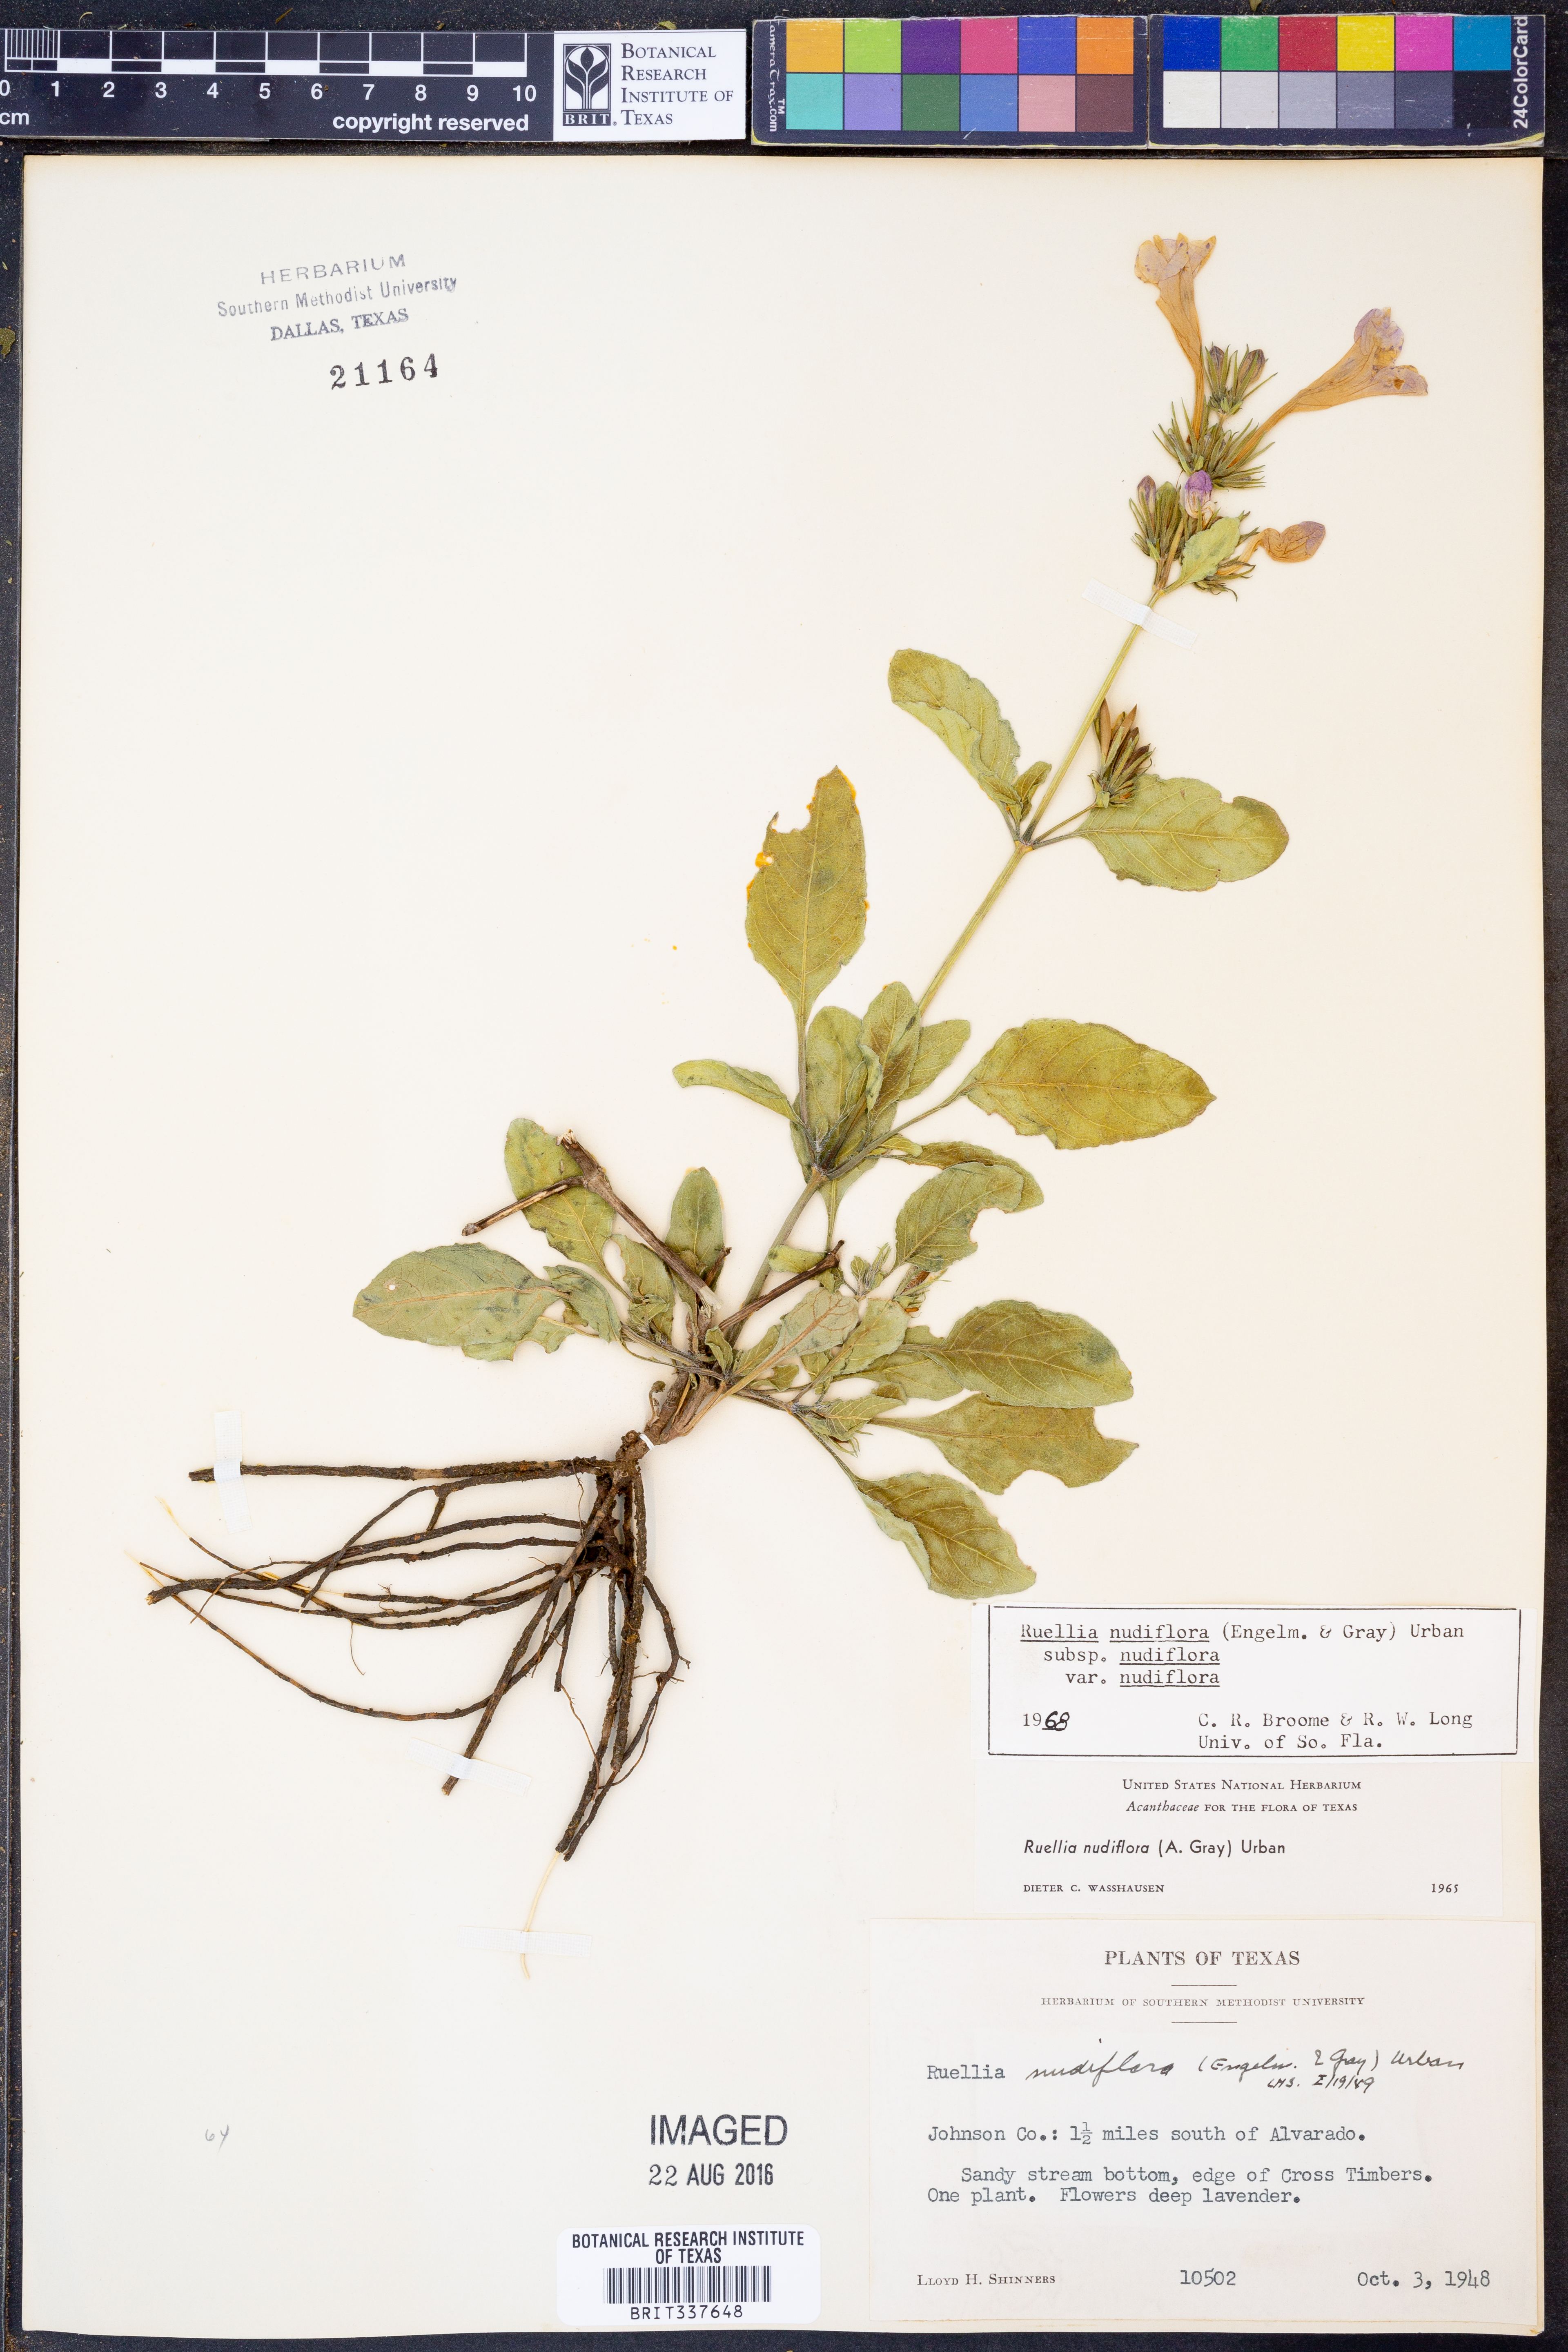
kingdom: Plantae
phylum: Tracheophyta
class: Magnoliopsida
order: Lamiales
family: Acanthaceae
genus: Ruellia
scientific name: Ruellia ciliatiflora
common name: Hairyflower wild petunia
